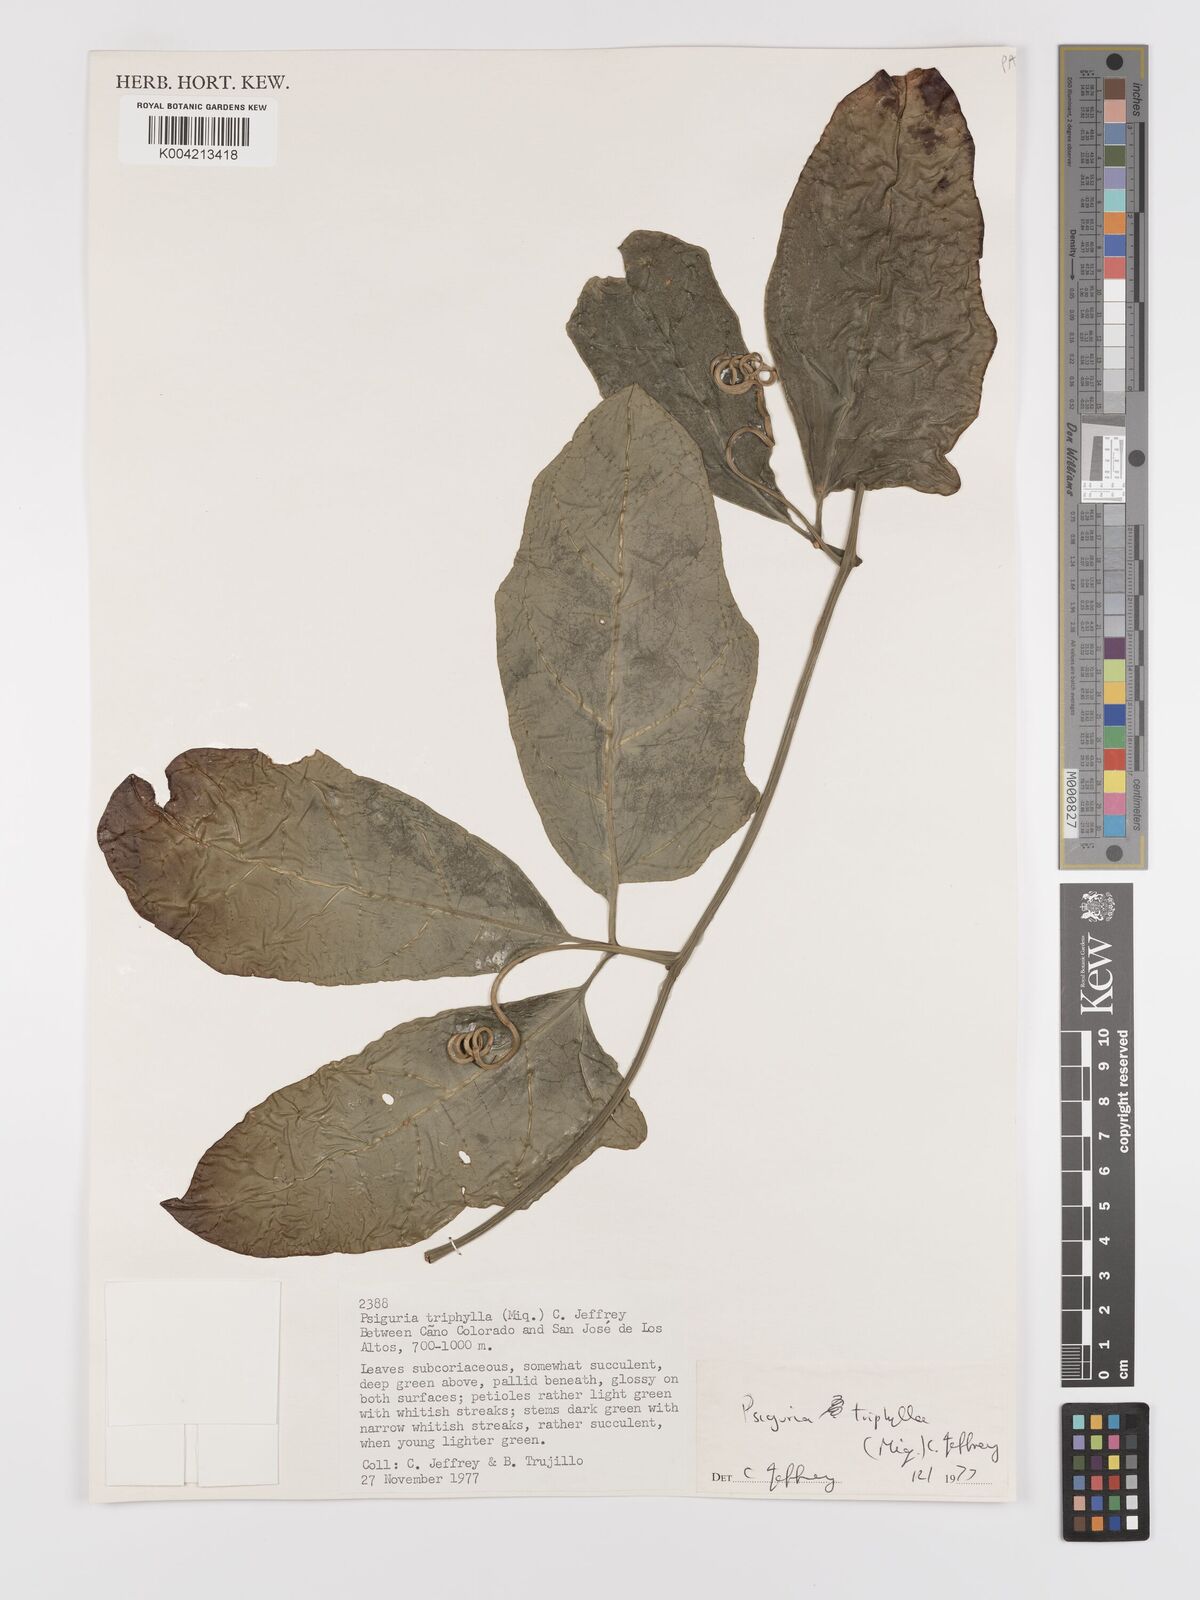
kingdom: Plantae
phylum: Tracheophyta
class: Magnoliopsida
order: Cucurbitales
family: Cucurbitaceae
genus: Psiguria
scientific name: Psiguria triphylla
